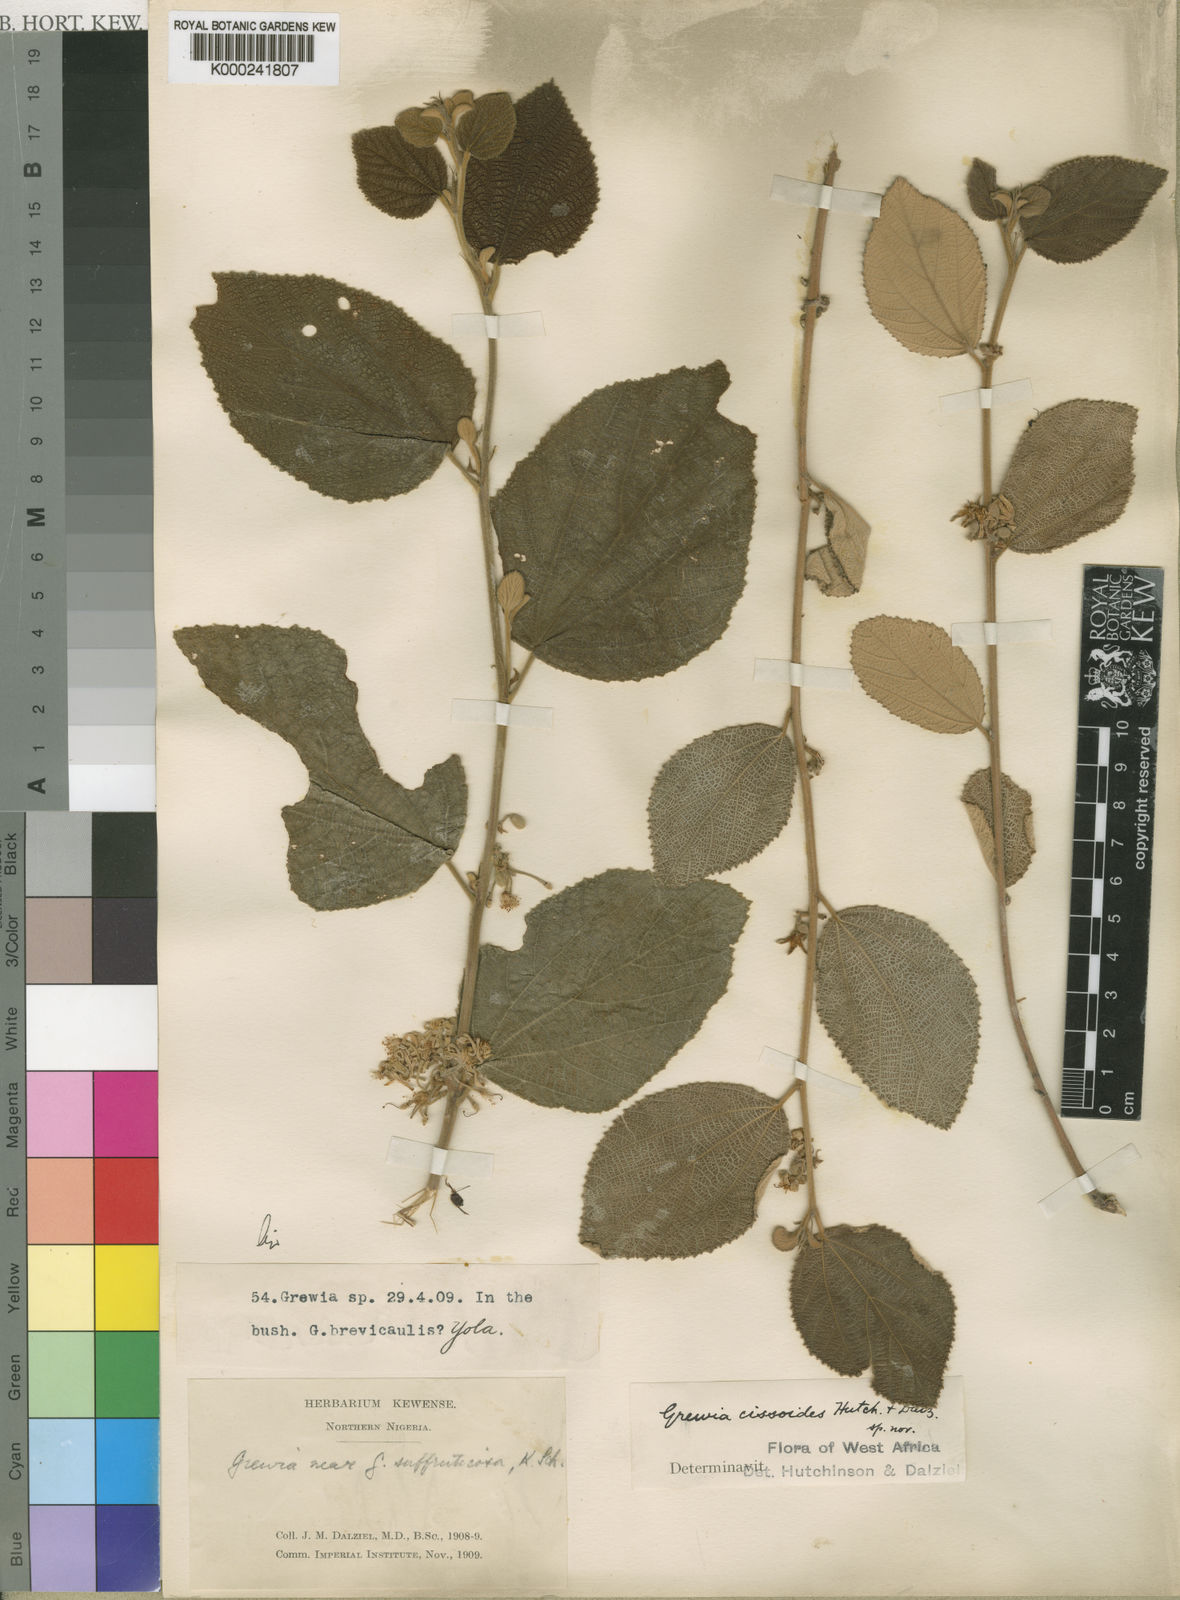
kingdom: Plantae
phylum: Tracheophyta
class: Magnoliopsida
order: Malvales
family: Malvaceae
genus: Grewia
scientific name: Grewia cissoides
